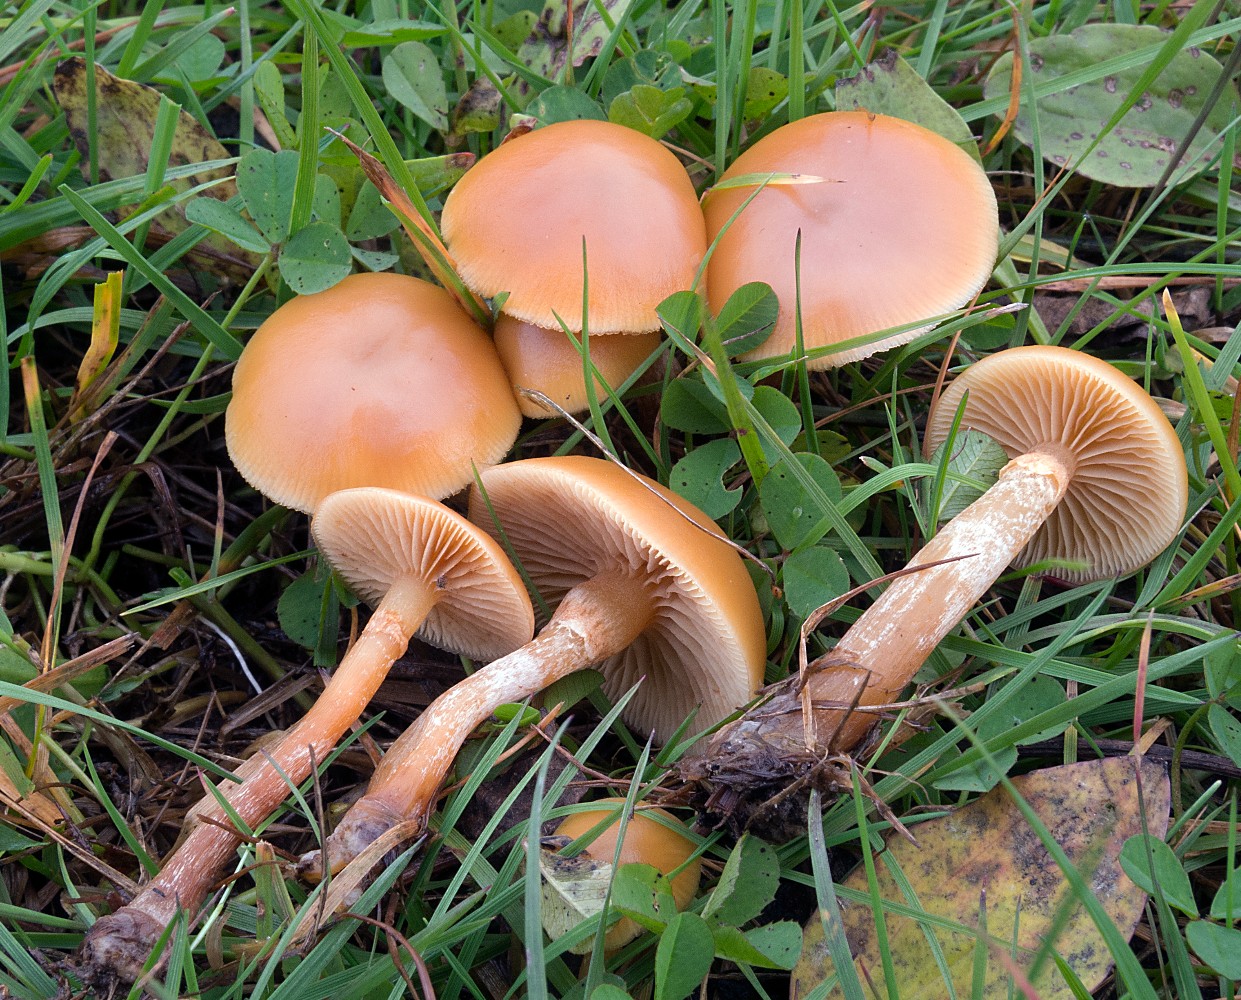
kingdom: Fungi
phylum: Basidiomycota
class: Agaricomycetes
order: Agaricales
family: Hymenogastraceae
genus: Galerina
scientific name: Galerina marginata
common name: randbæltet hjelmhat
